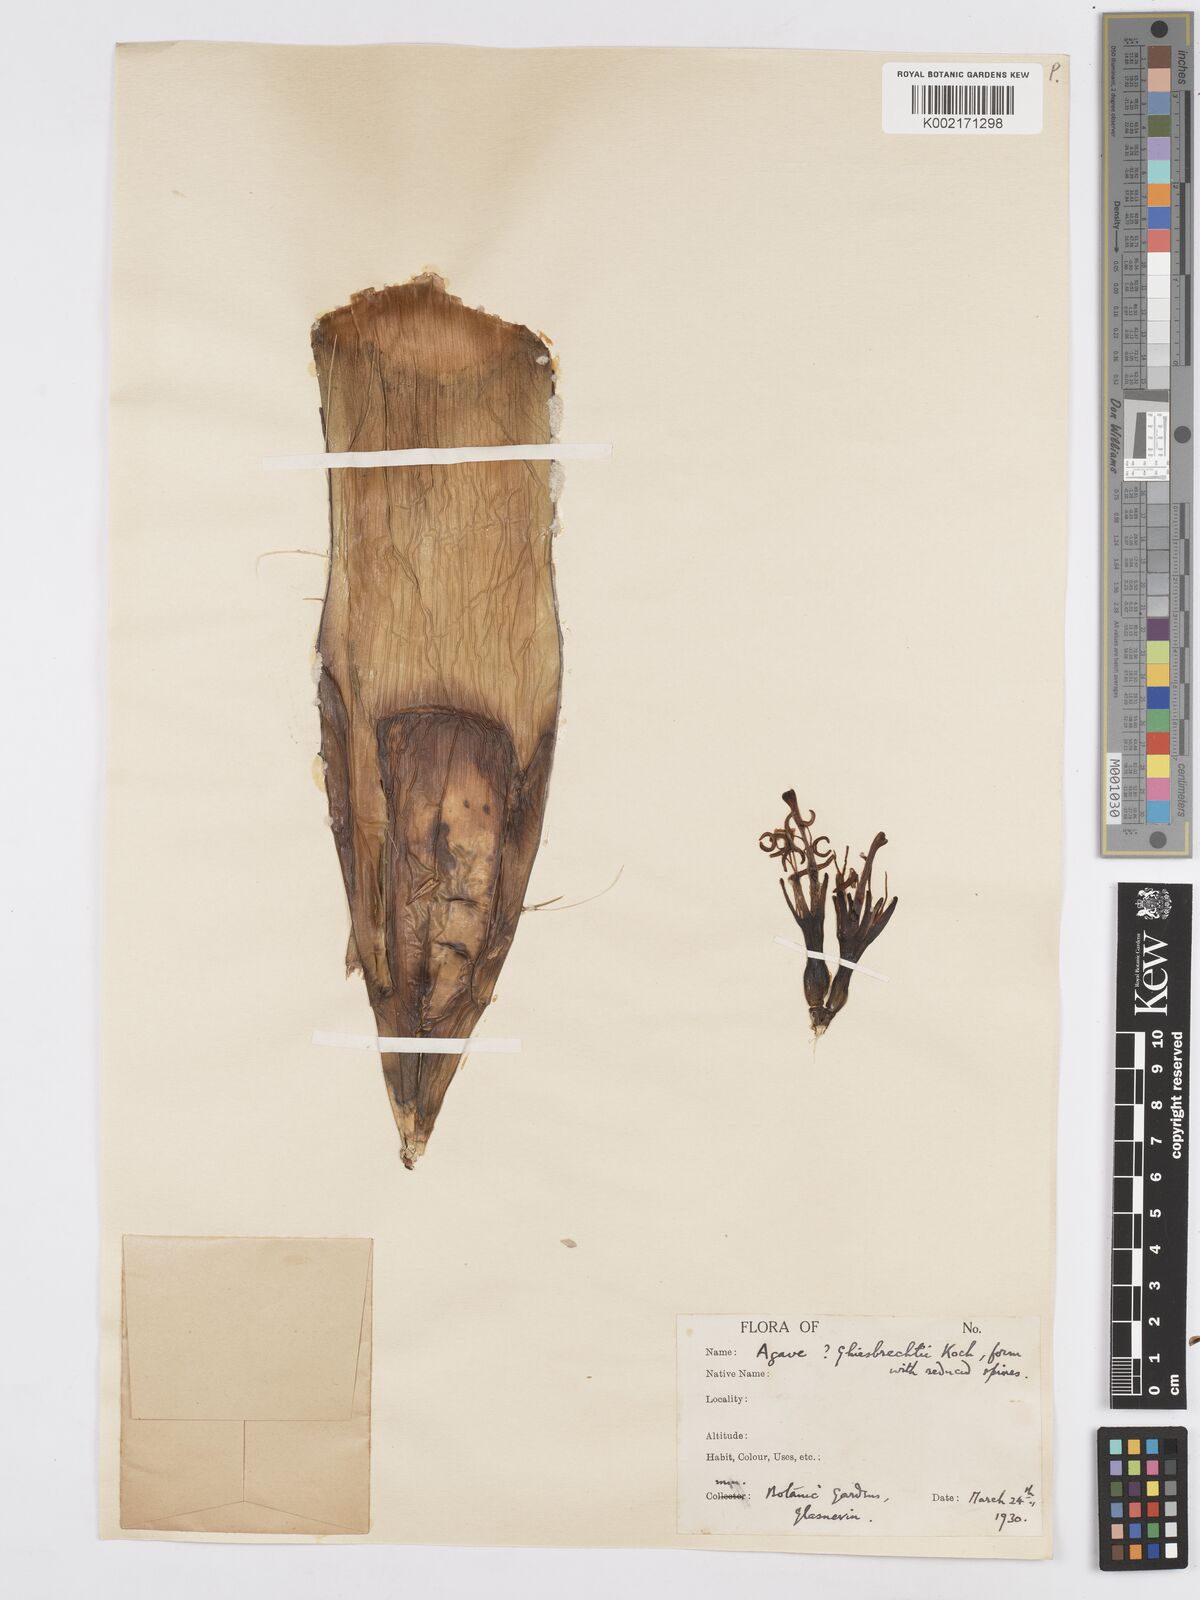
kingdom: Plantae
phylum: Tracheophyta
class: Liliopsida
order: Asparagales
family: Asparagaceae
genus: Agave
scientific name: Agave ghiesbreghtii
